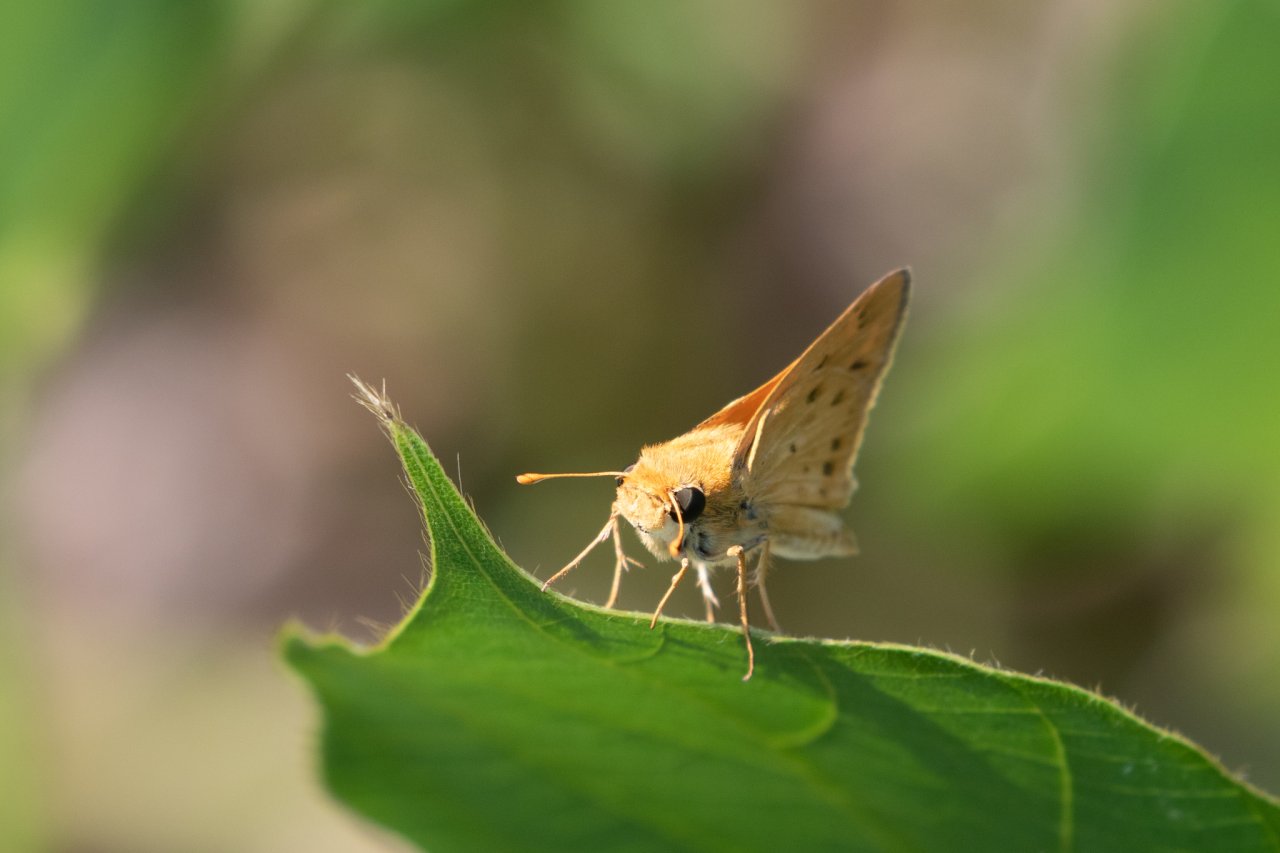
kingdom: Animalia
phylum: Arthropoda
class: Insecta
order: Lepidoptera
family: Hesperiidae
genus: Hylephila
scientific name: Hylephila phyleus
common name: Fiery Skipper
